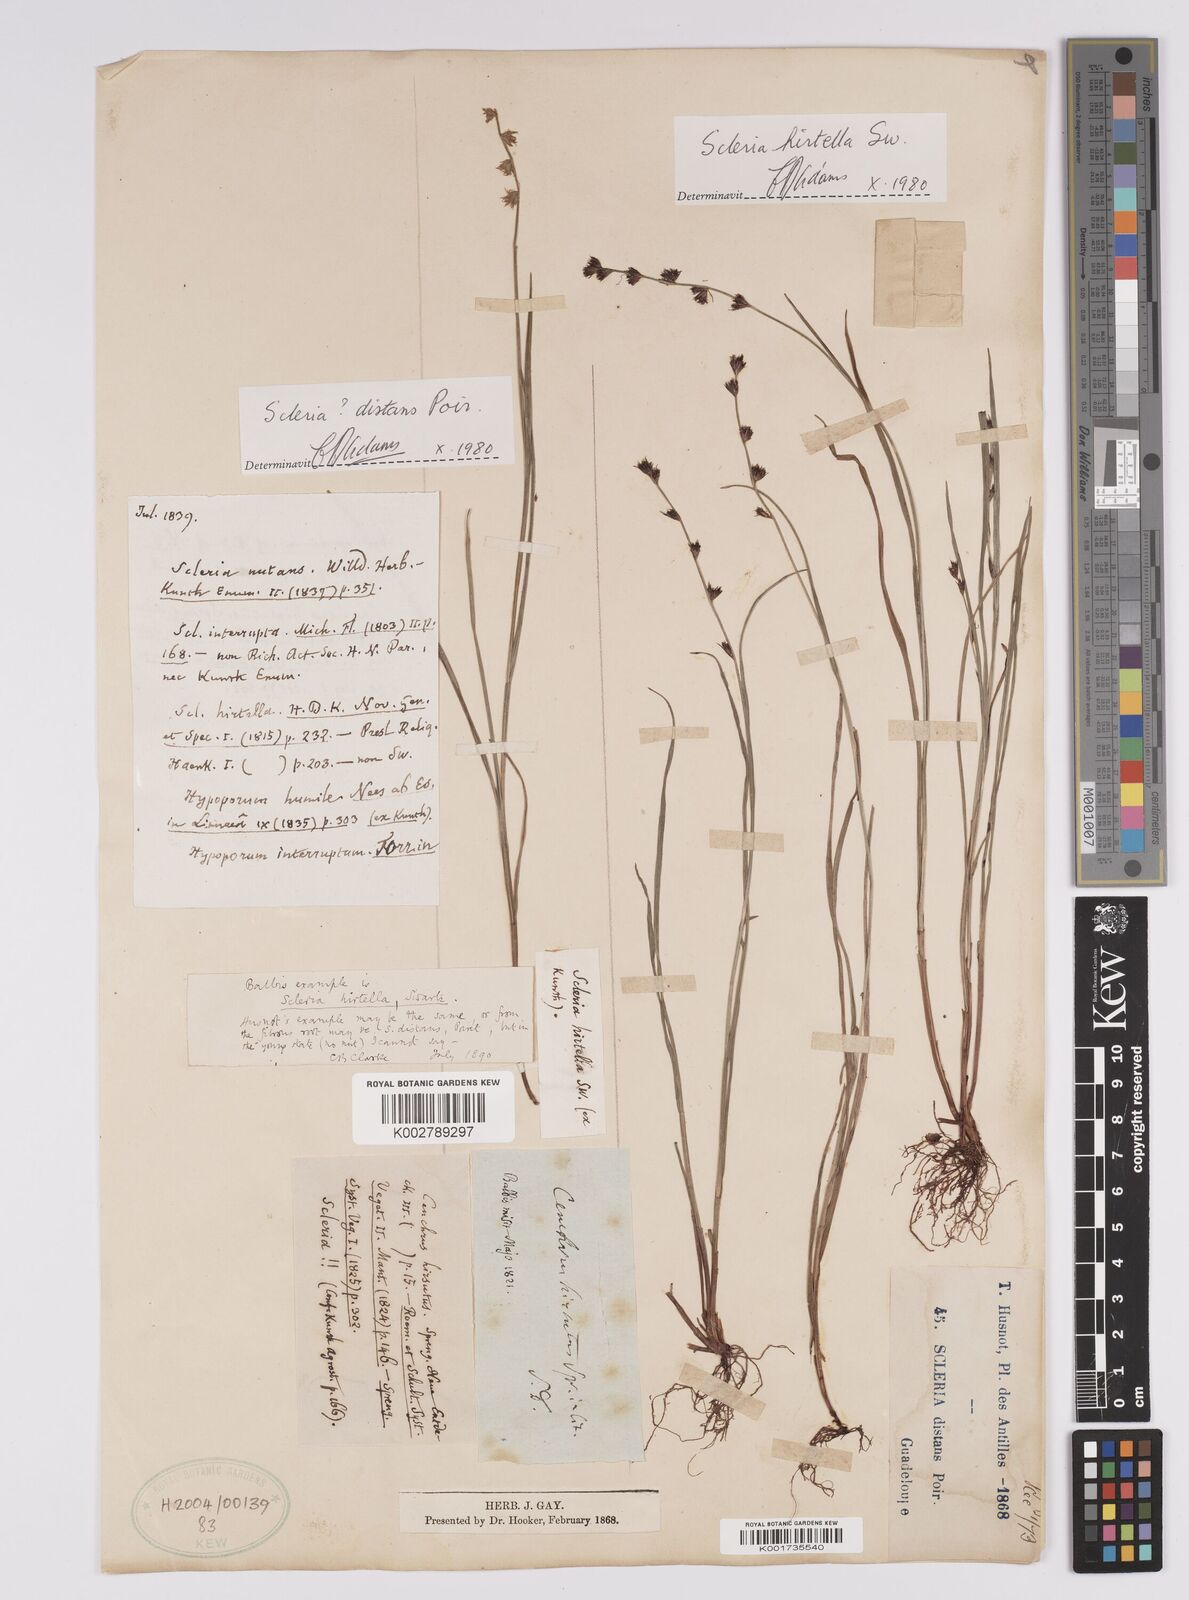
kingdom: Plantae
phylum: Tracheophyta
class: Liliopsida
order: Poales
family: Cyperaceae
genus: Scleria
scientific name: Scleria hirtella
